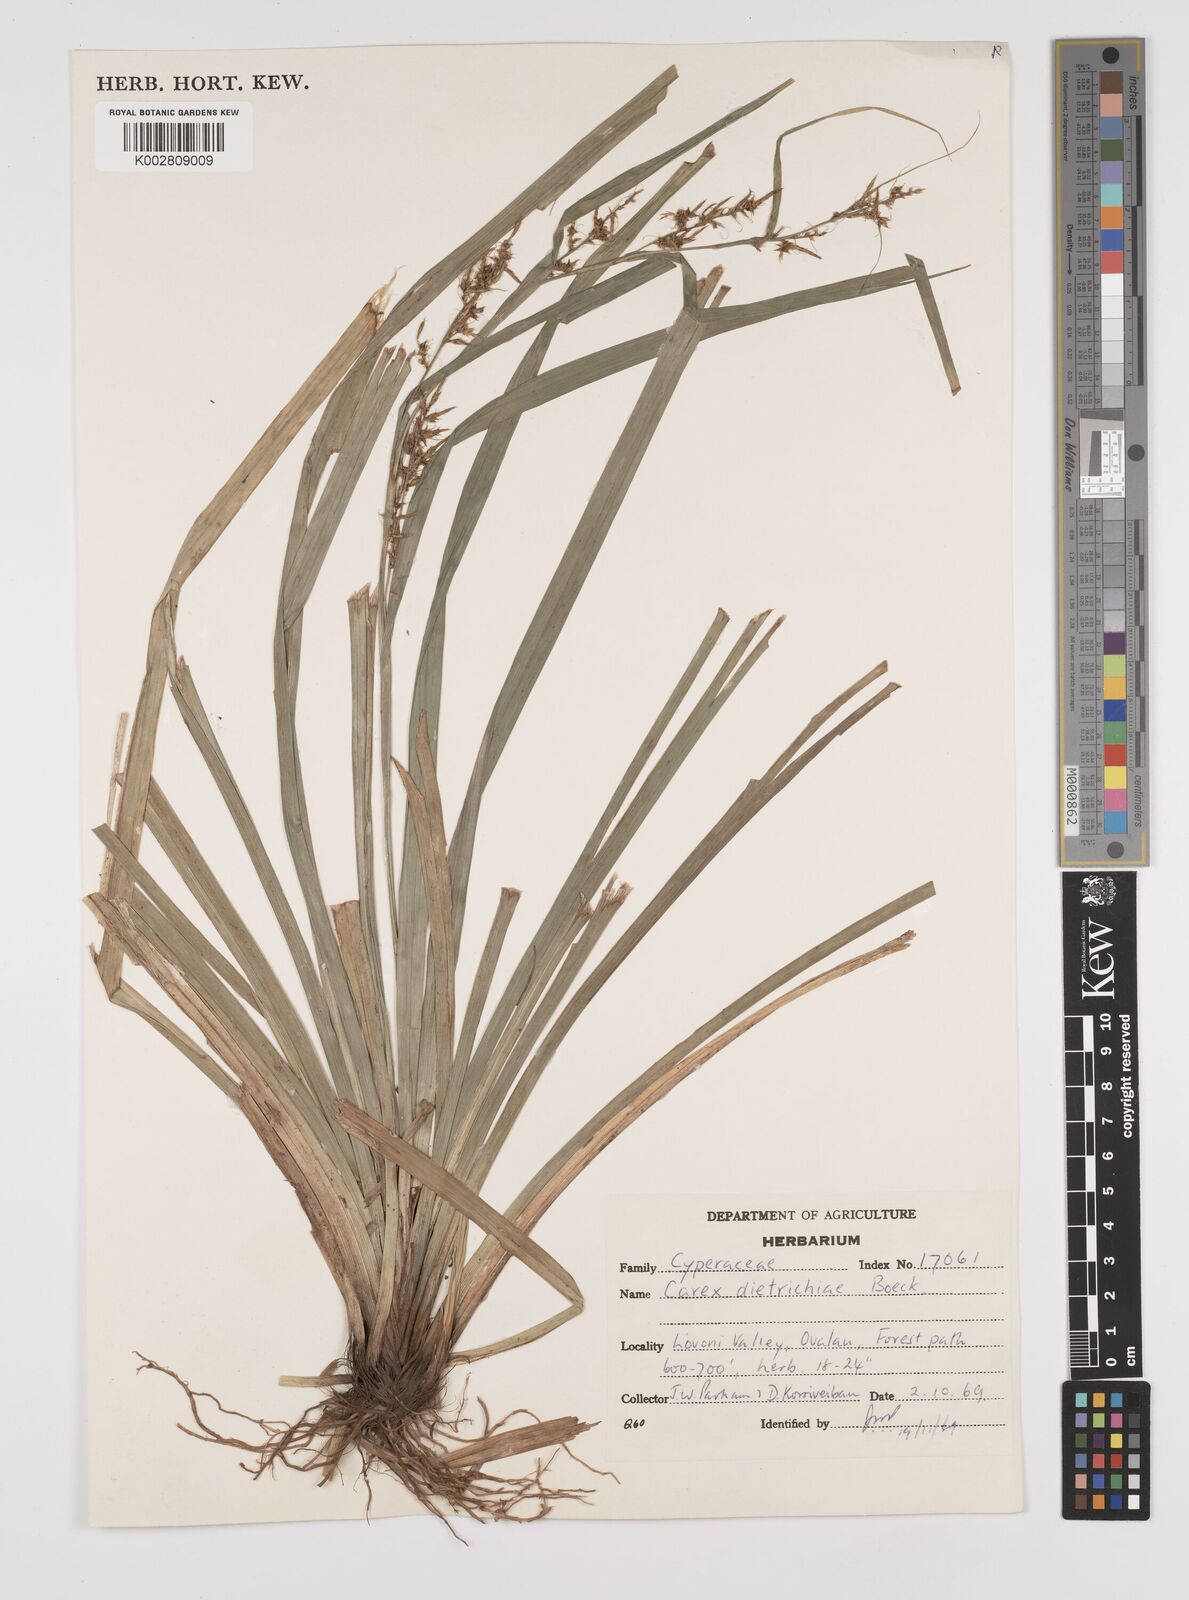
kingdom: Plantae
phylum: Tracheophyta
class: Liliopsida
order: Poales
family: Cyperaceae
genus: Carex
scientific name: Carex indica
